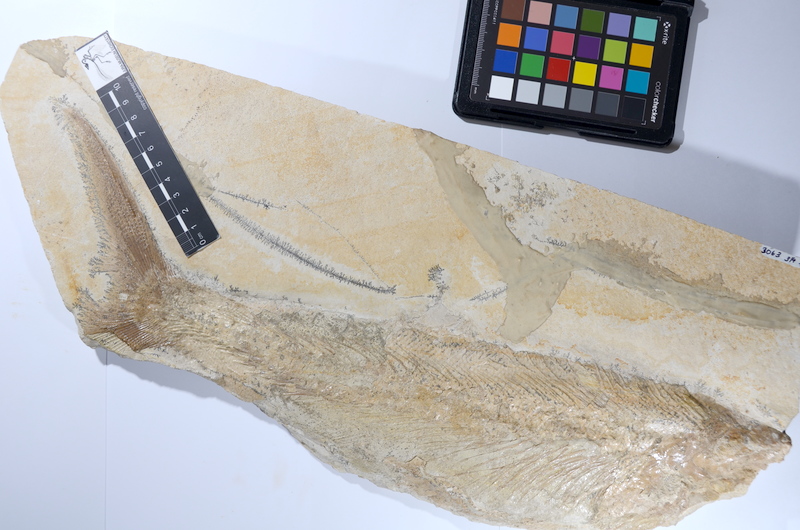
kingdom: Animalia
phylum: Chordata
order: Amiiformes
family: Caturidae
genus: Caturus
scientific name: Caturus furcatus
